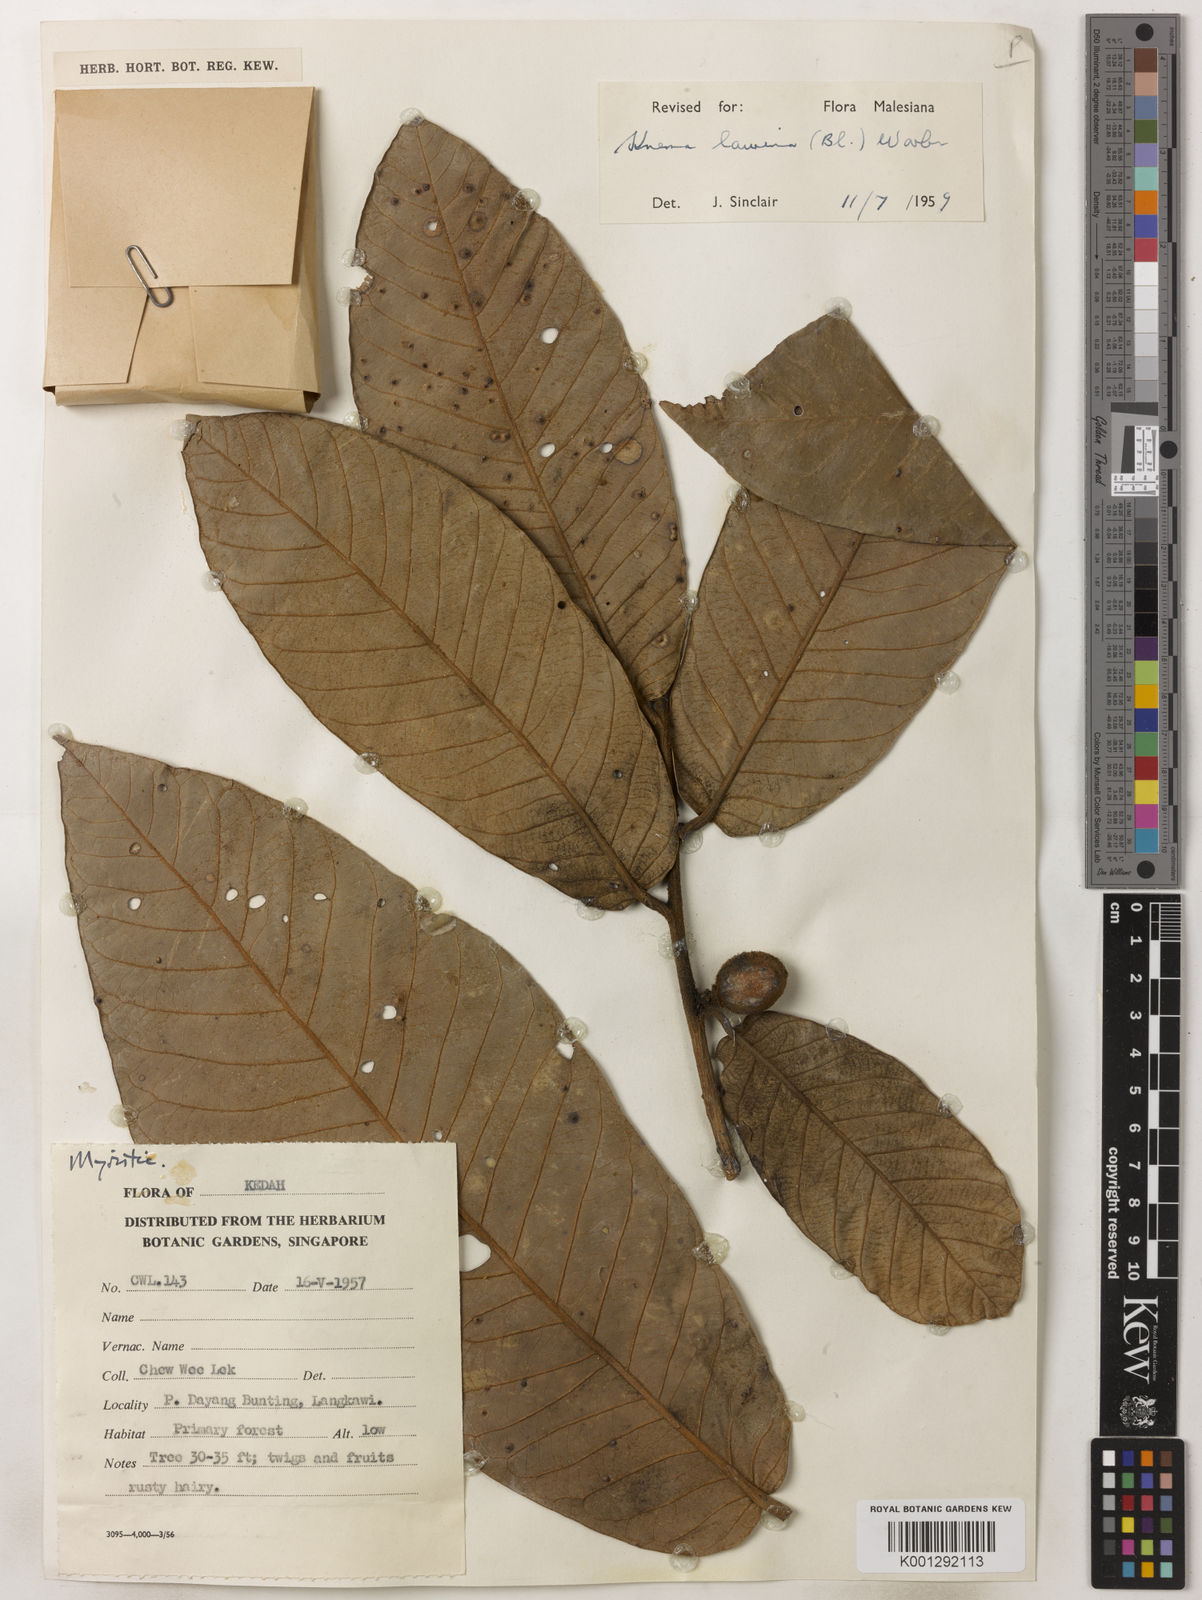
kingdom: Plantae
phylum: Tracheophyta
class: Magnoliopsida
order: Magnoliales
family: Myristicaceae
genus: Knema
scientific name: Knema laurina
